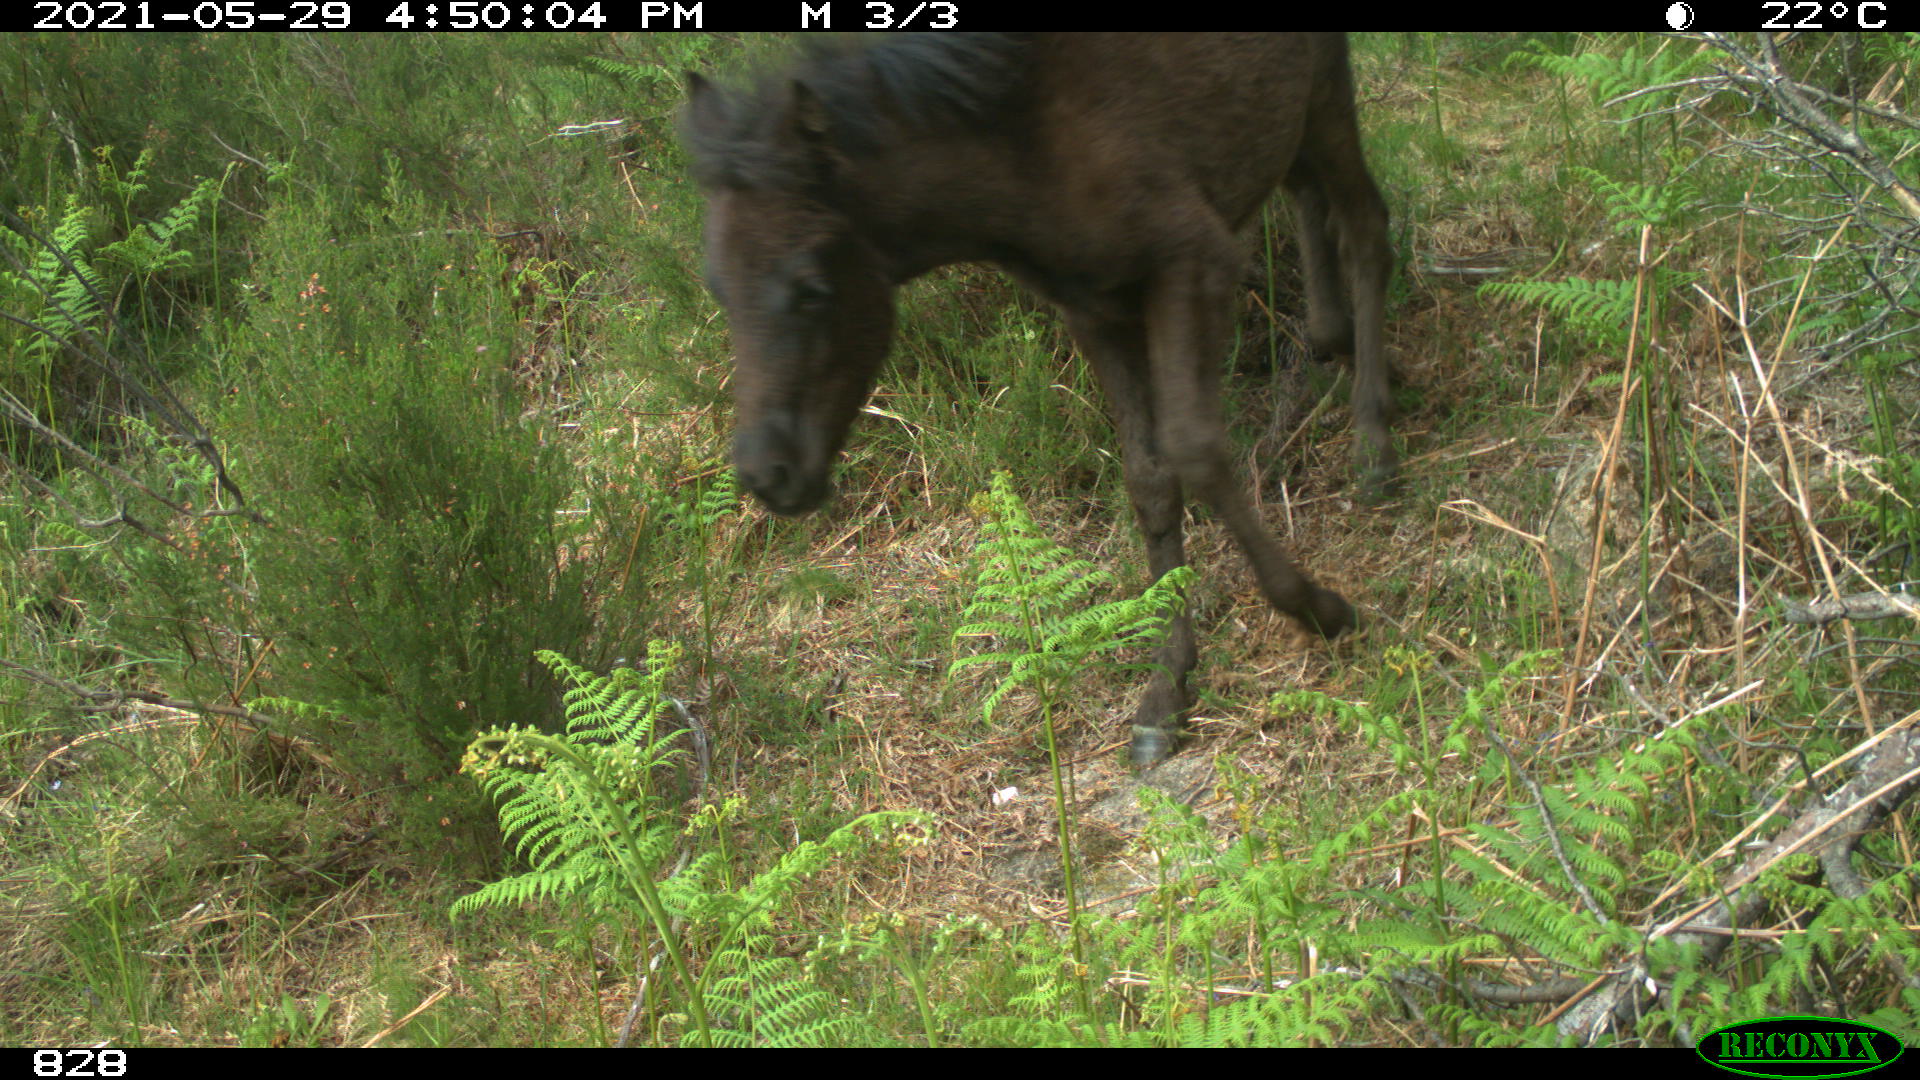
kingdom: Animalia
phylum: Chordata
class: Mammalia
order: Perissodactyla
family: Equidae
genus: Equus
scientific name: Equus caballus
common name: Horse
